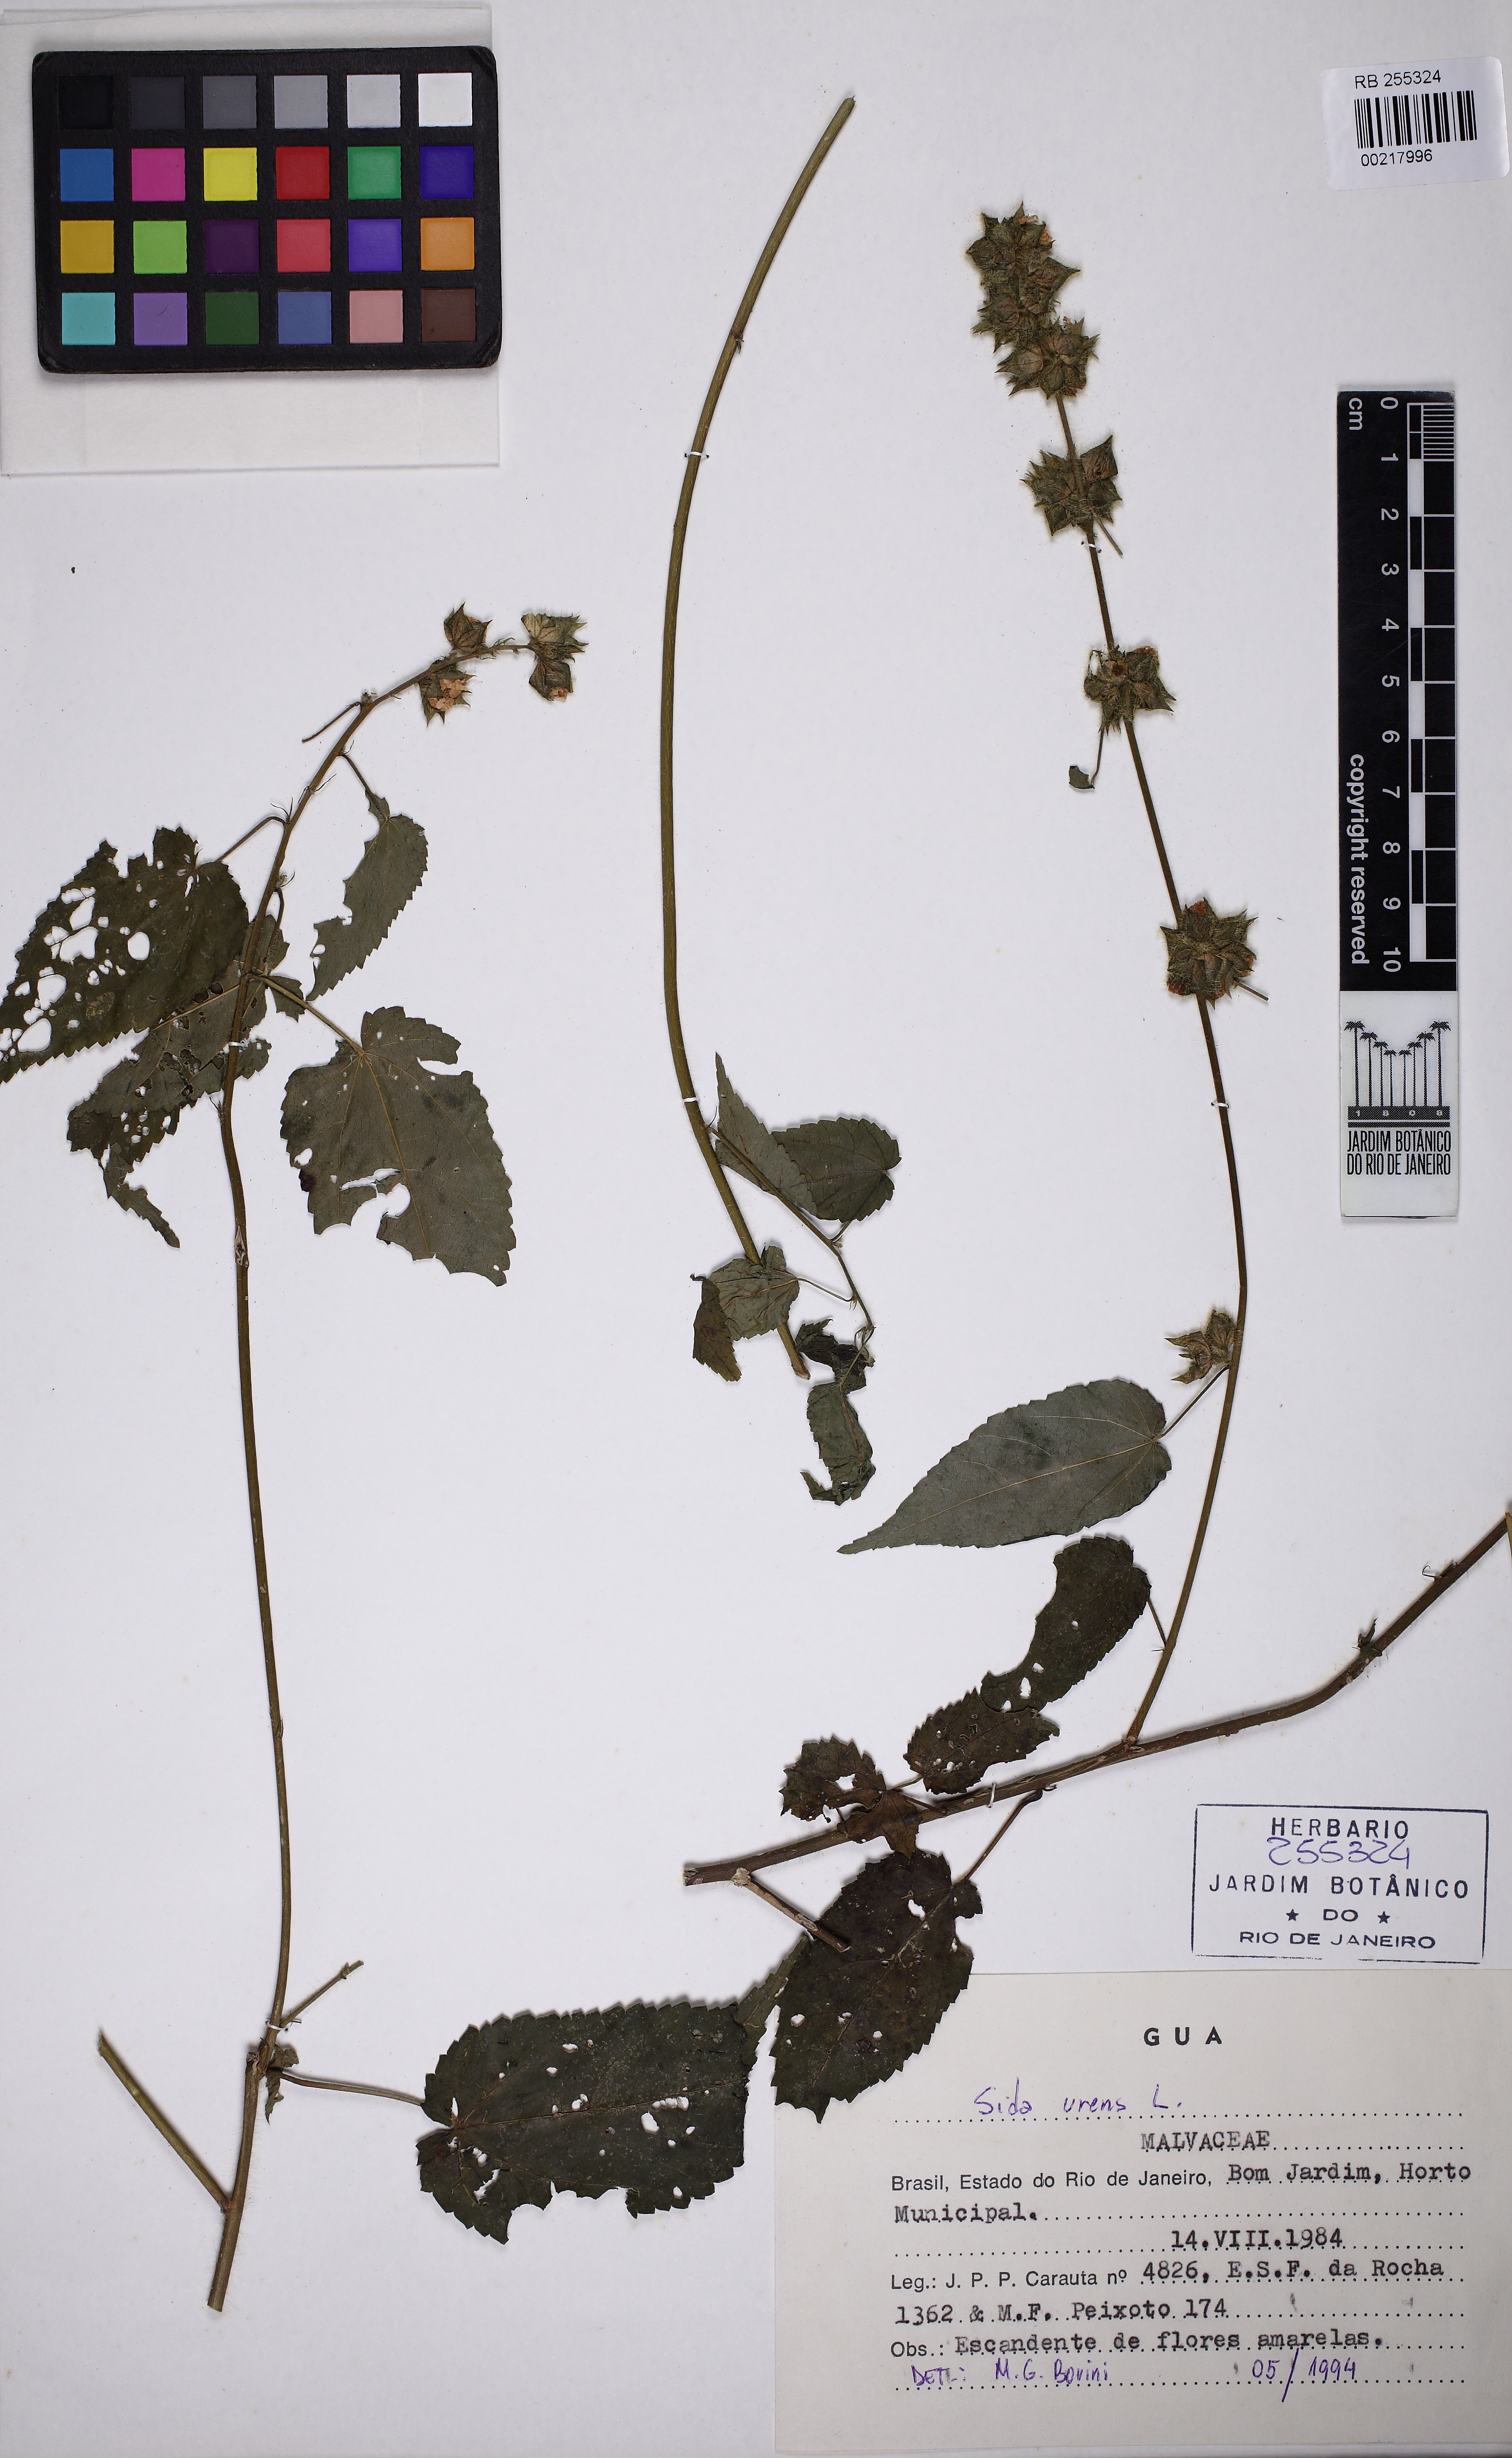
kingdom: Plantae
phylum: Tracheophyta
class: Magnoliopsida
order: Malvales
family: Malvaceae
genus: Sida
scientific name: Sida urens
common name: Tropical fanpetals
